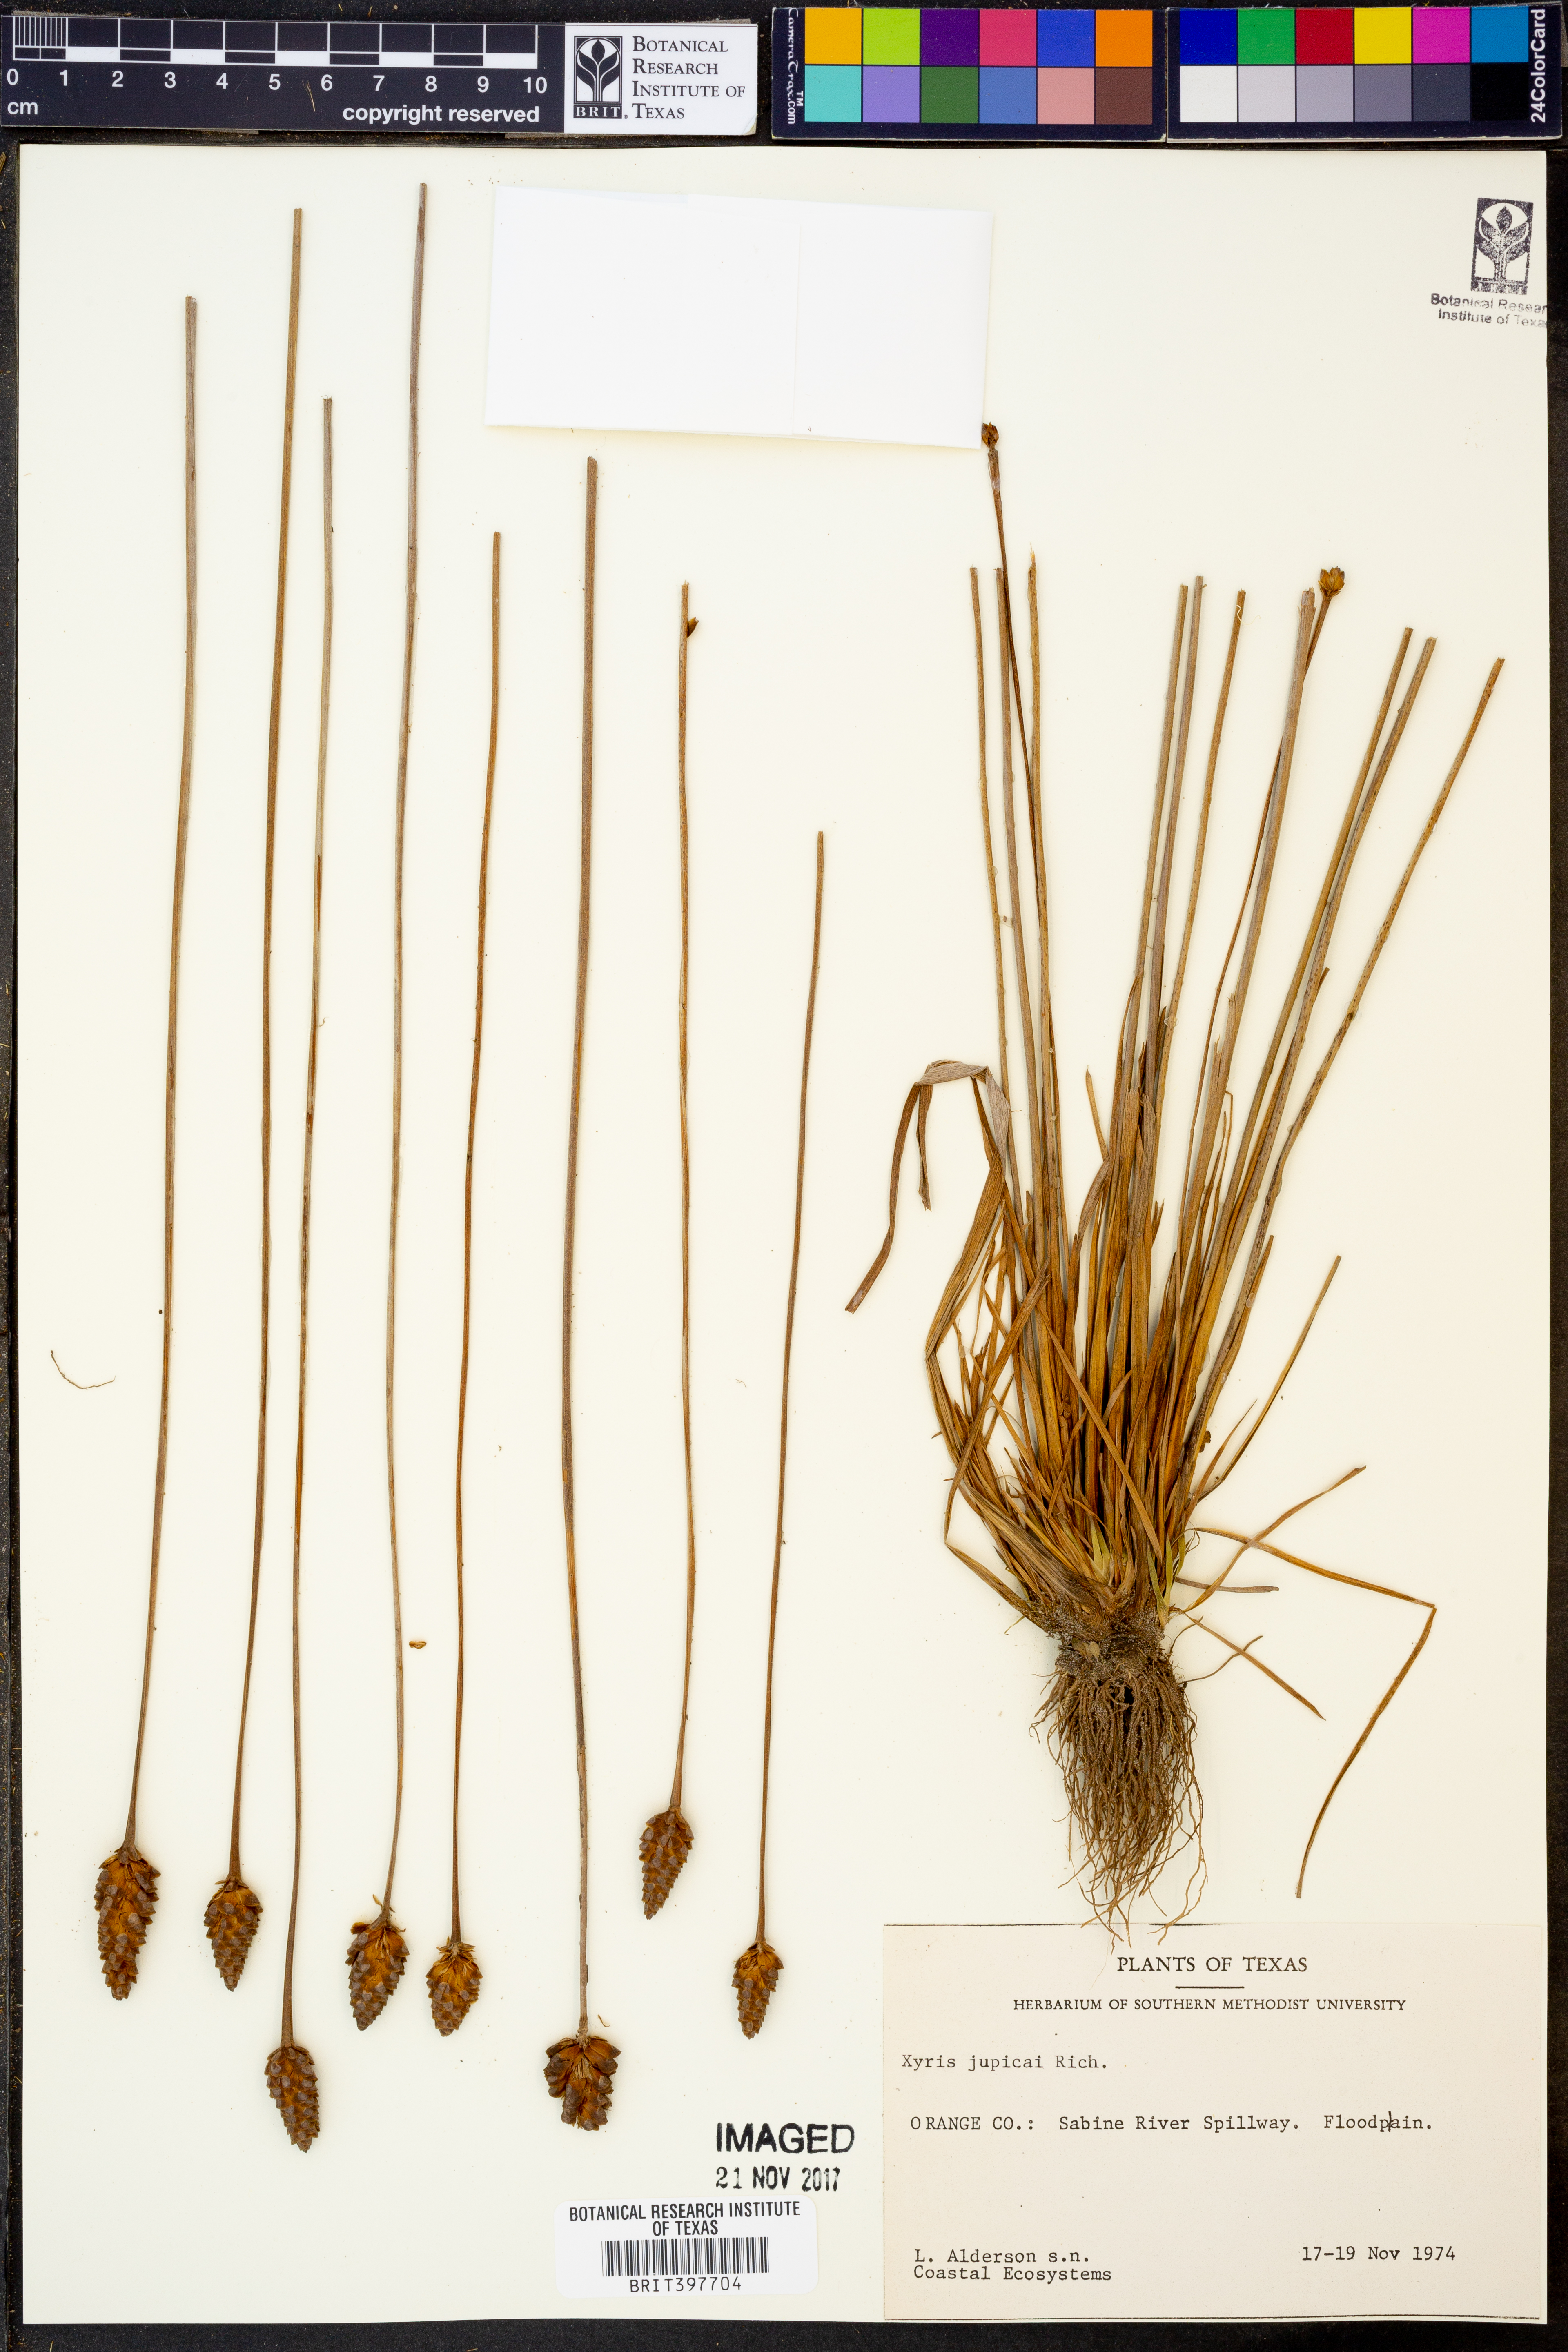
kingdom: Plantae
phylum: Tracheophyta
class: Liliopsida
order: Poales
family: Xyridaceae
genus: Xyris
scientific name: Xyris jupicai
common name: Richard's yelloweyed grass
